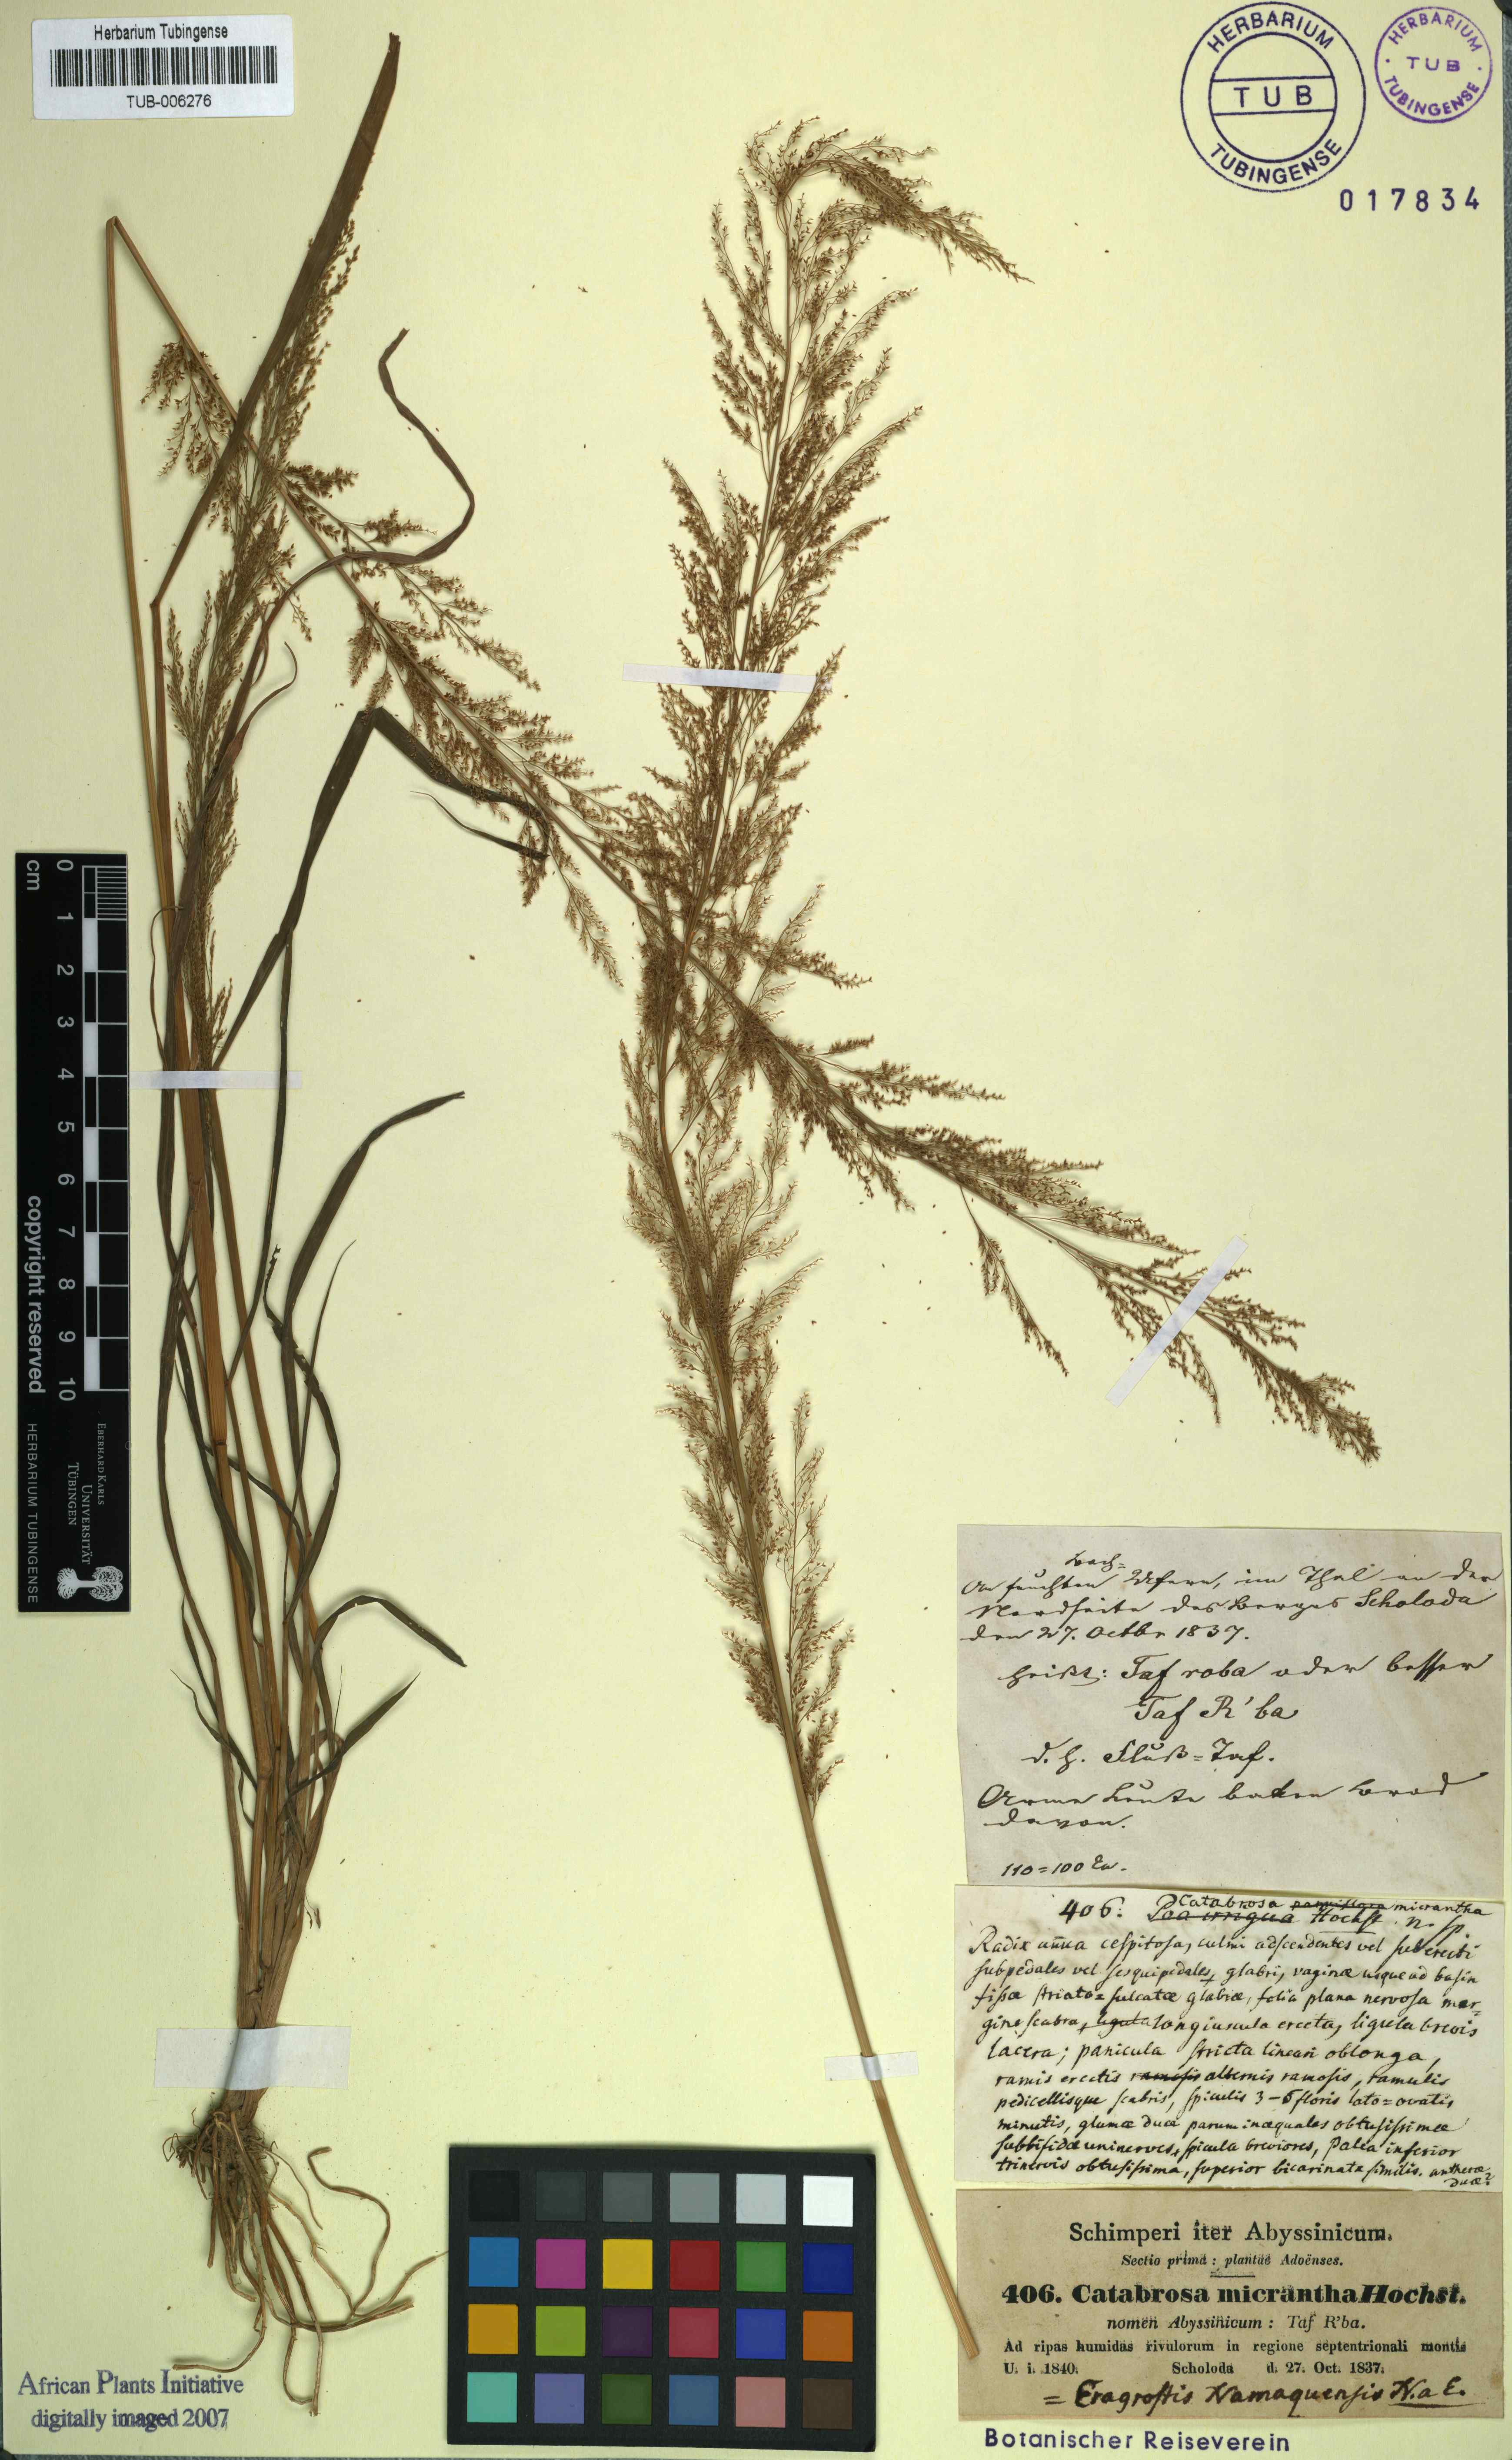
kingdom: Plantae
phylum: Tracheophyta
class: Liliopsida
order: Poales
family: Poaceae
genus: Eragrostis
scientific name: Eragrostis interrupta
